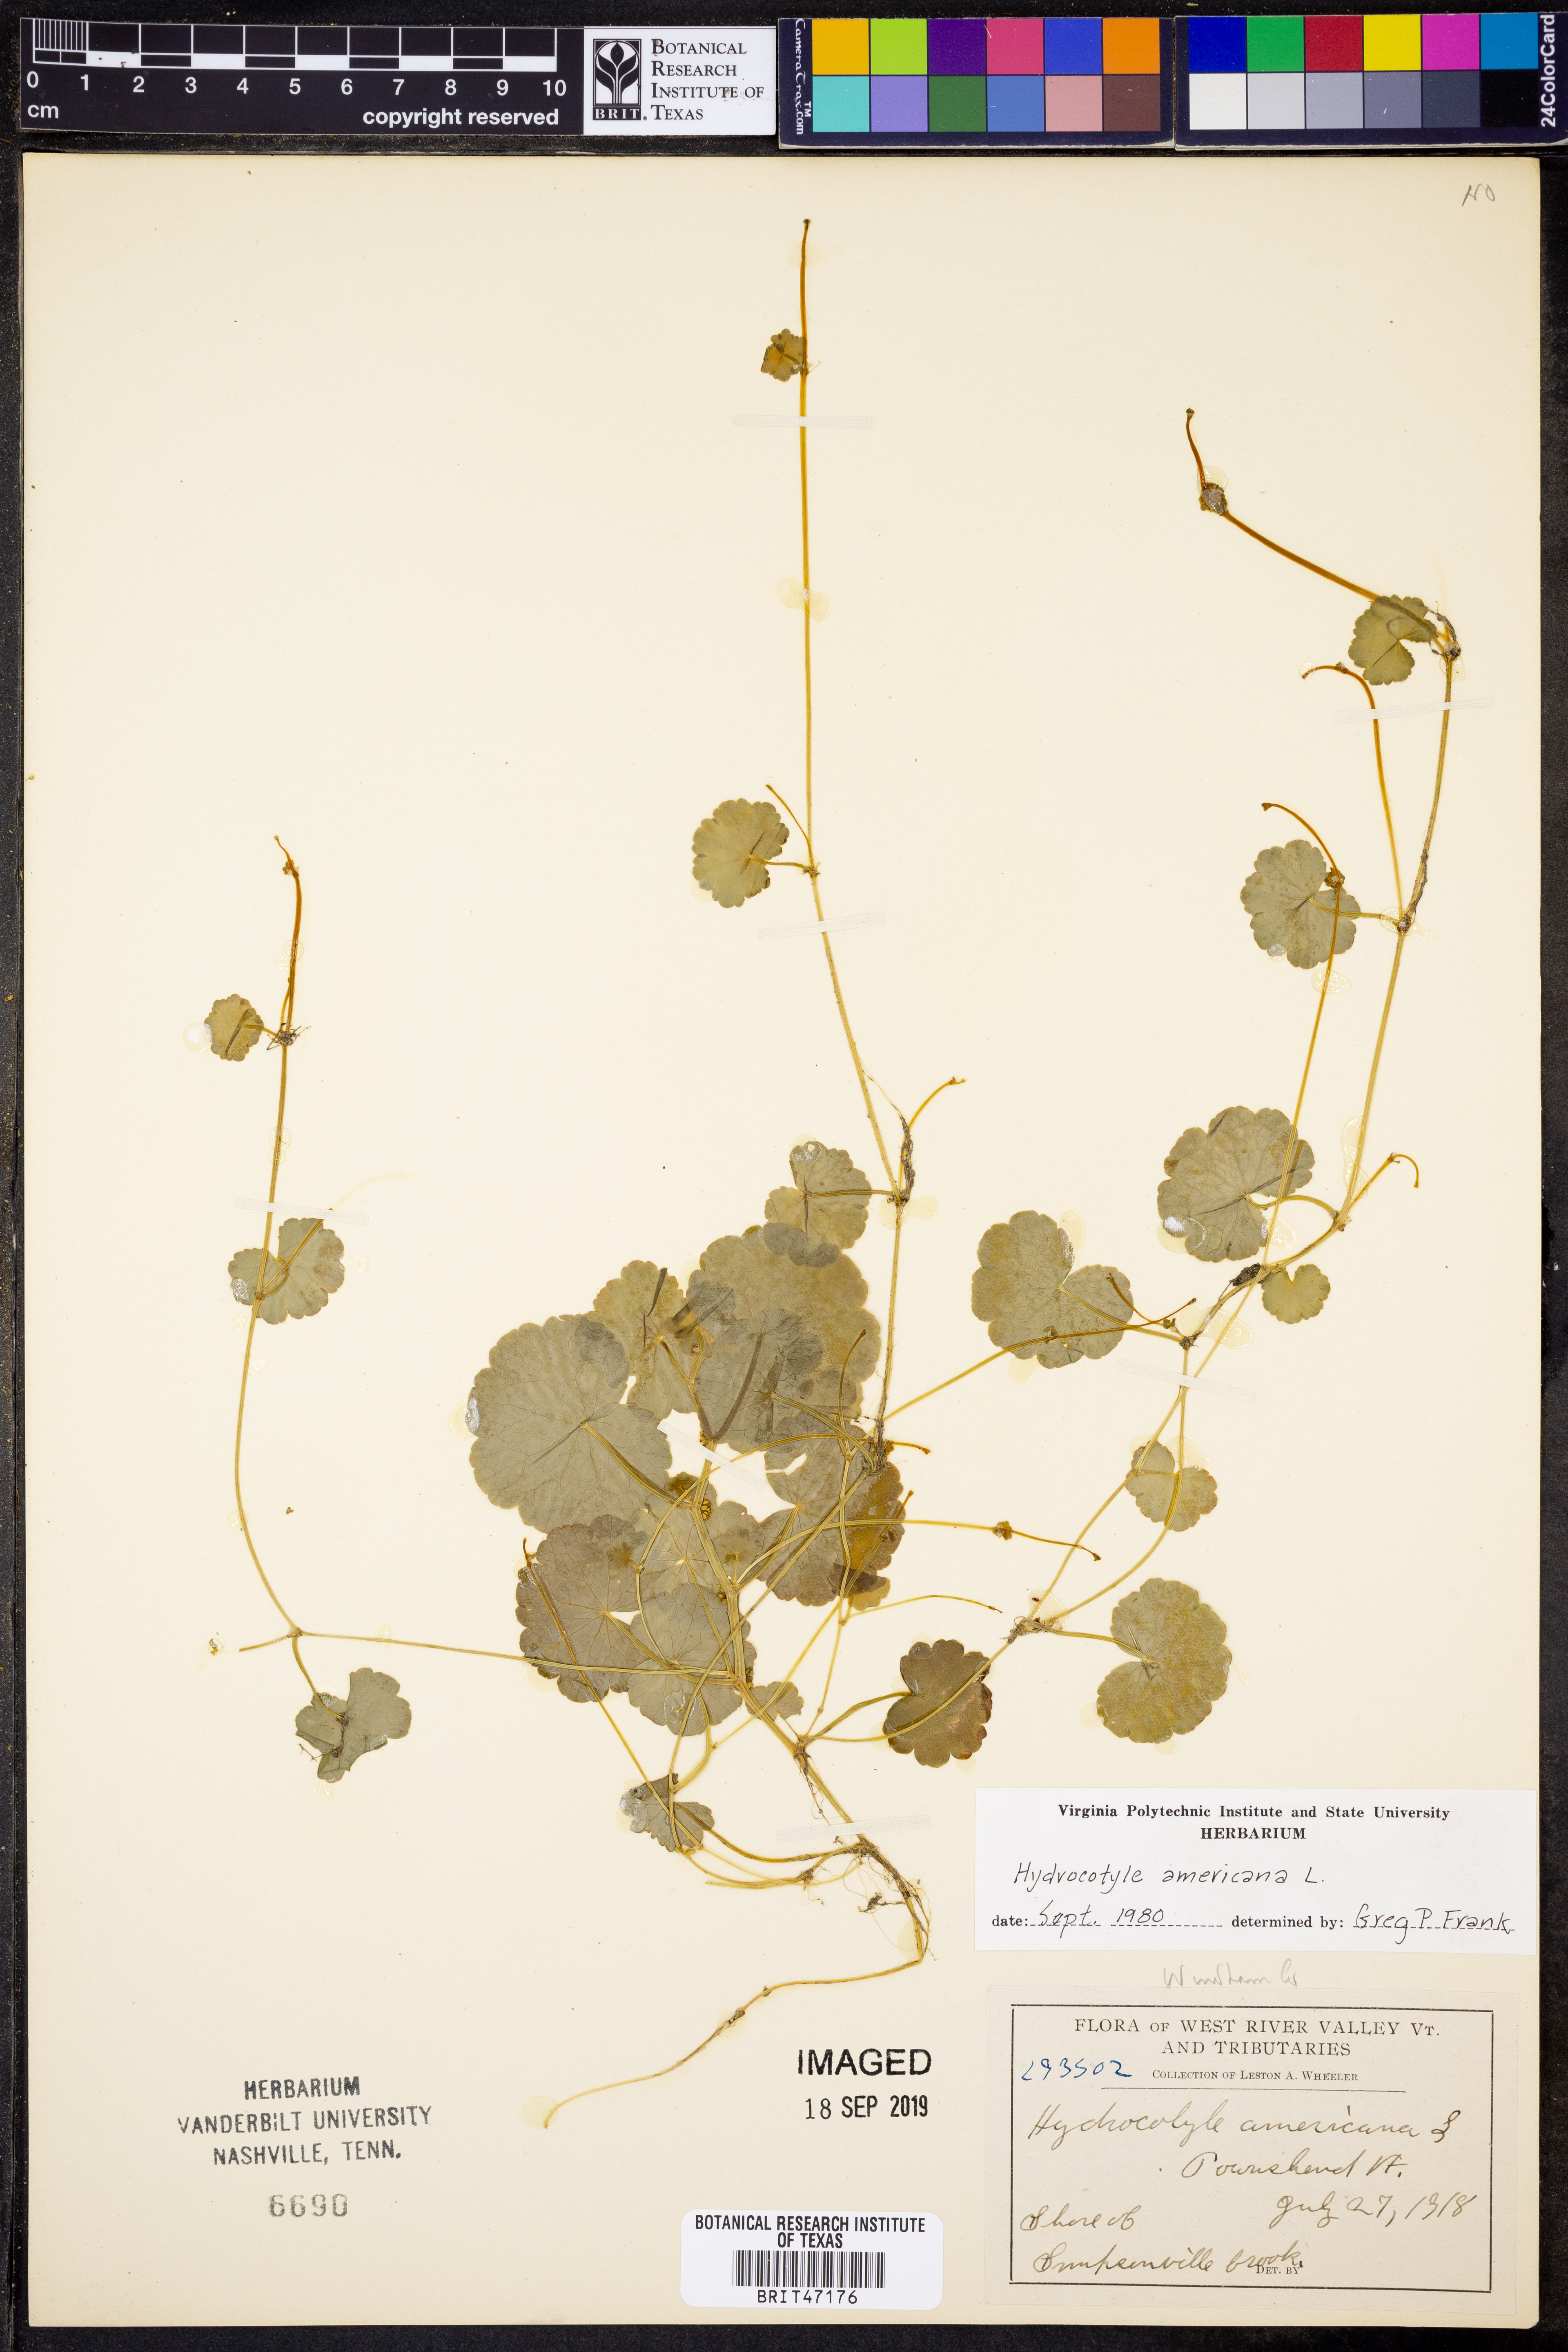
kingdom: Plantae
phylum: Tracheophyta
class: Magnoliopsida
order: Apiales
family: Araliaceae
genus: Hydrocotyle
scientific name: Hydrocotyle americana
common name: American water-pennywort
